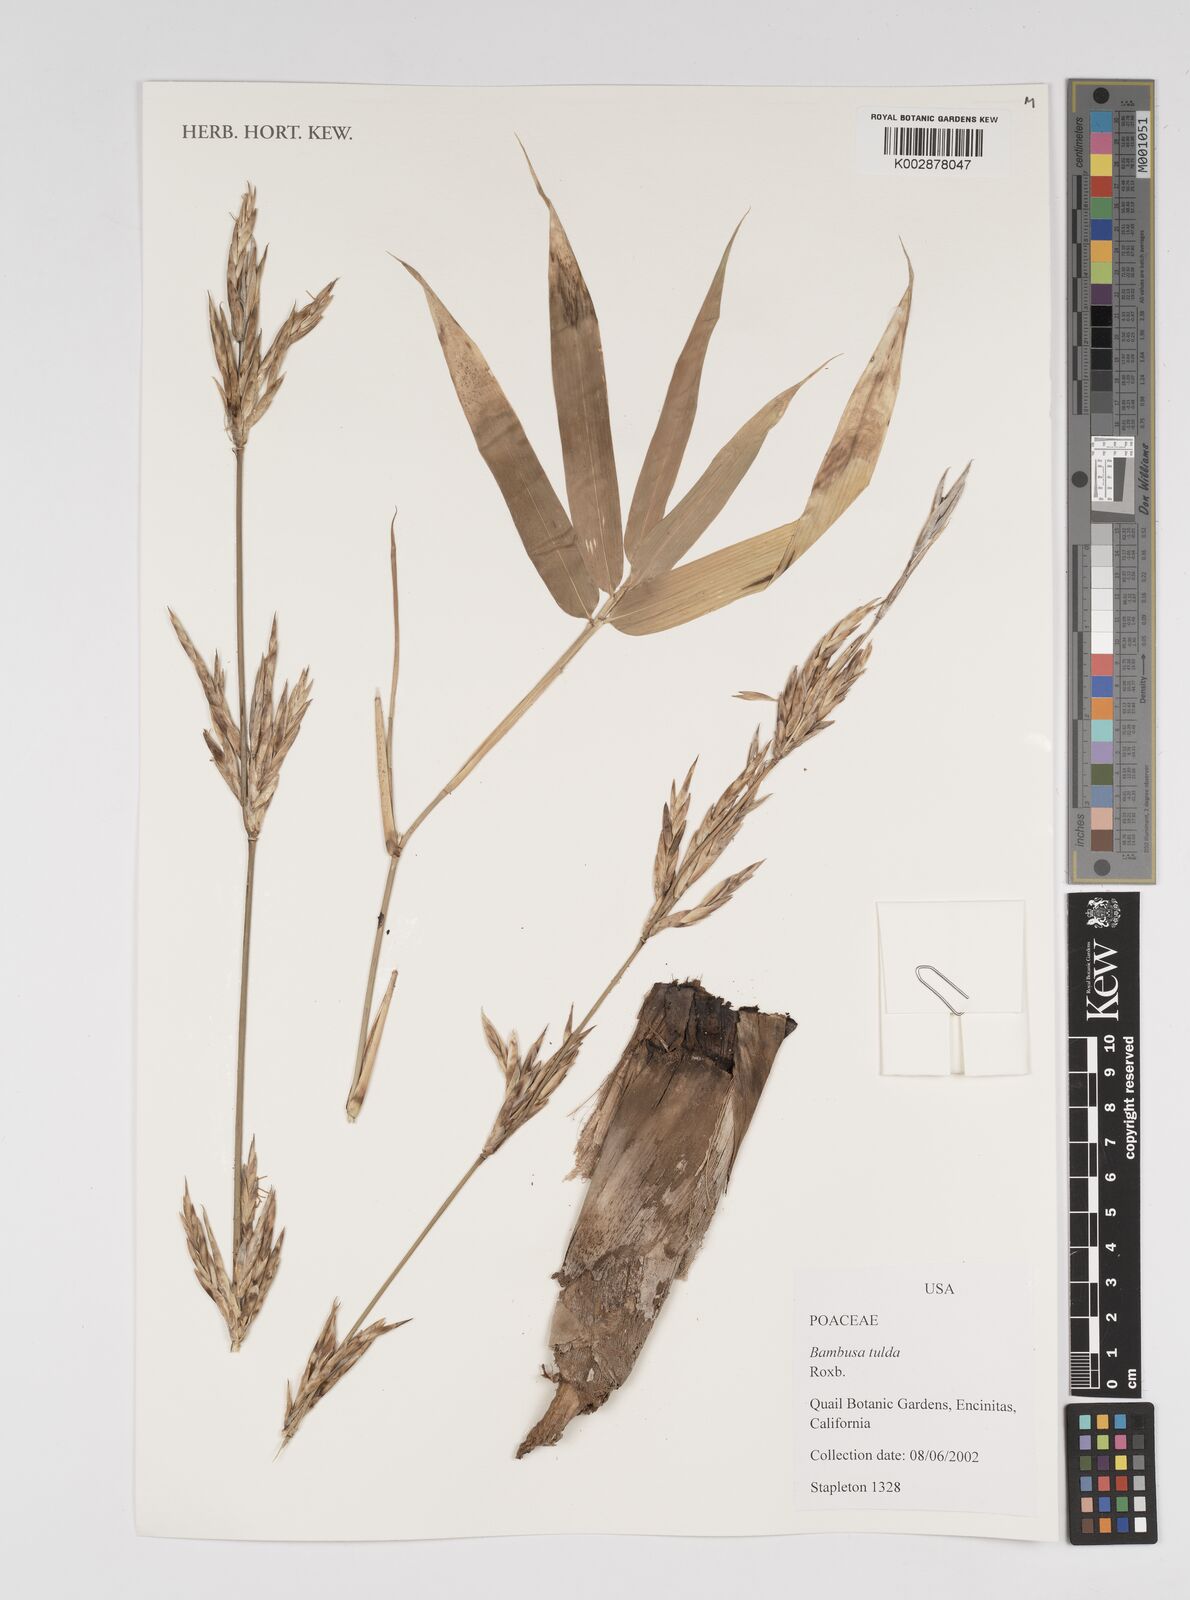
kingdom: Plantae
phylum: Tracheophyta
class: Liliopsida
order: Poales
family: Poaceae
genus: Bambusa
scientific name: Bambusa rutila
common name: Muk bamboo
